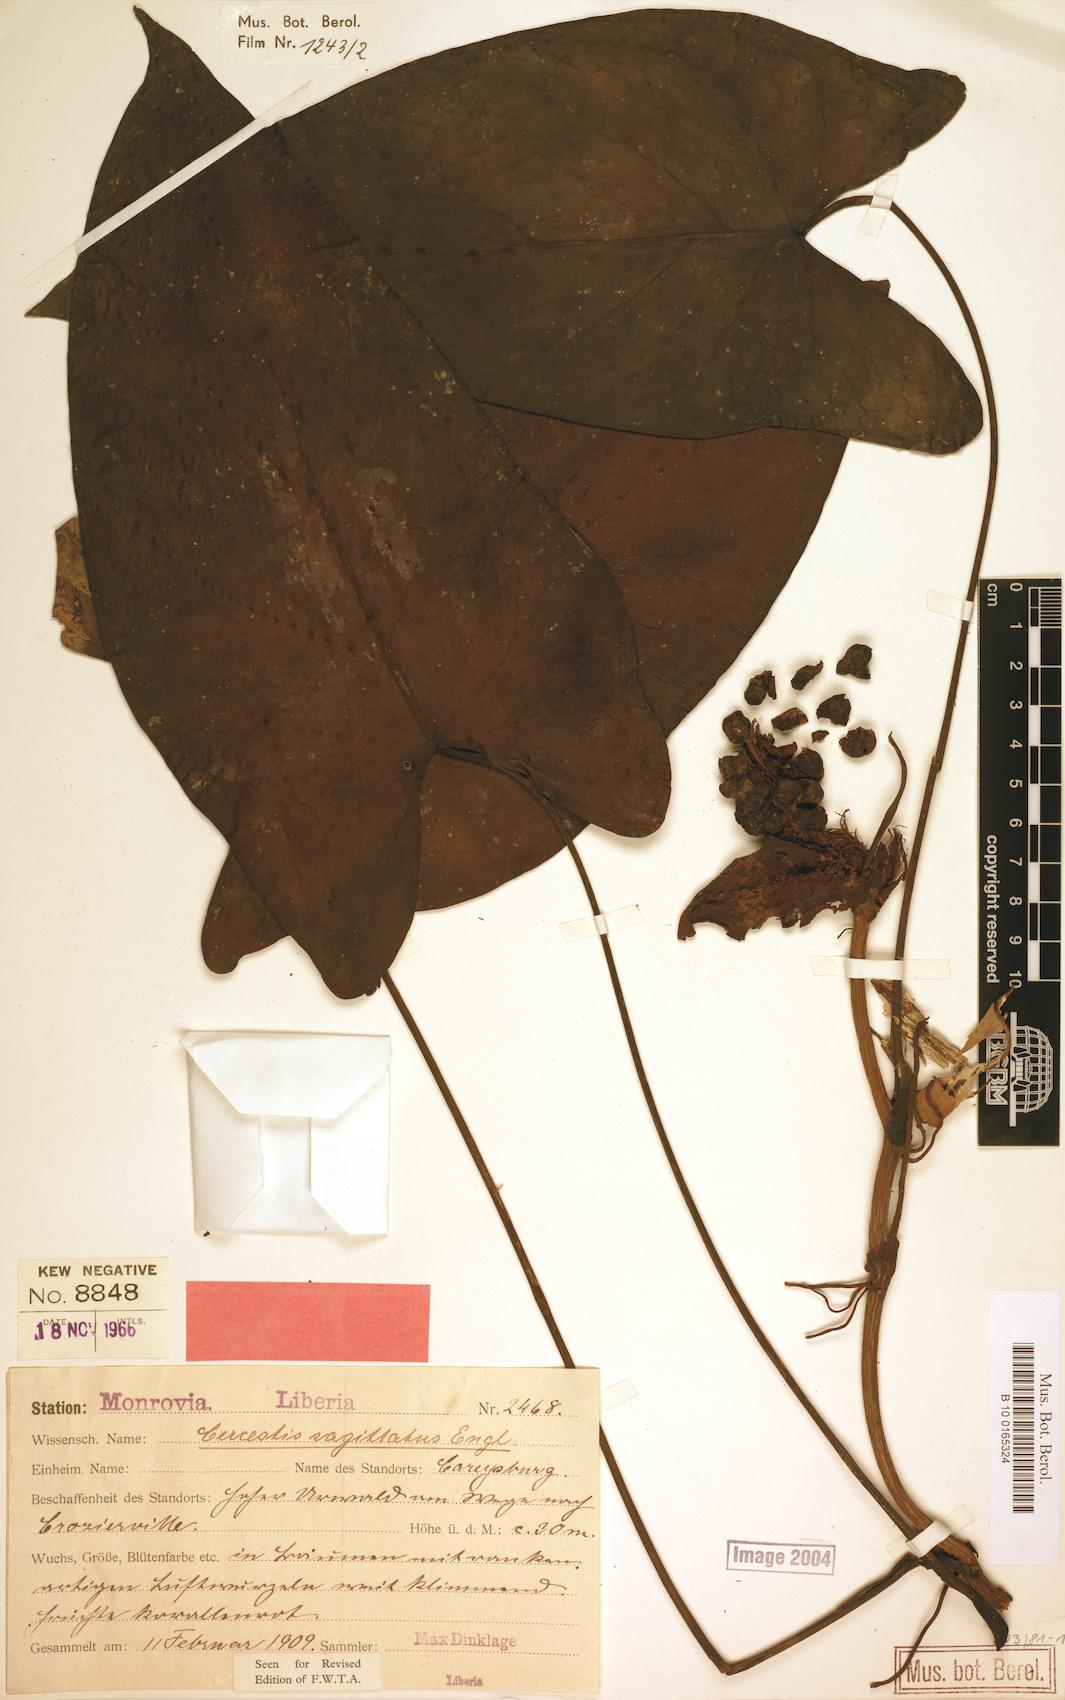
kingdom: Plantae
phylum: Tracheophyta
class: Liliopsida
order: Alismatales
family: Araceae
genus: Cercestis
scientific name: Cercestis sagittatus
